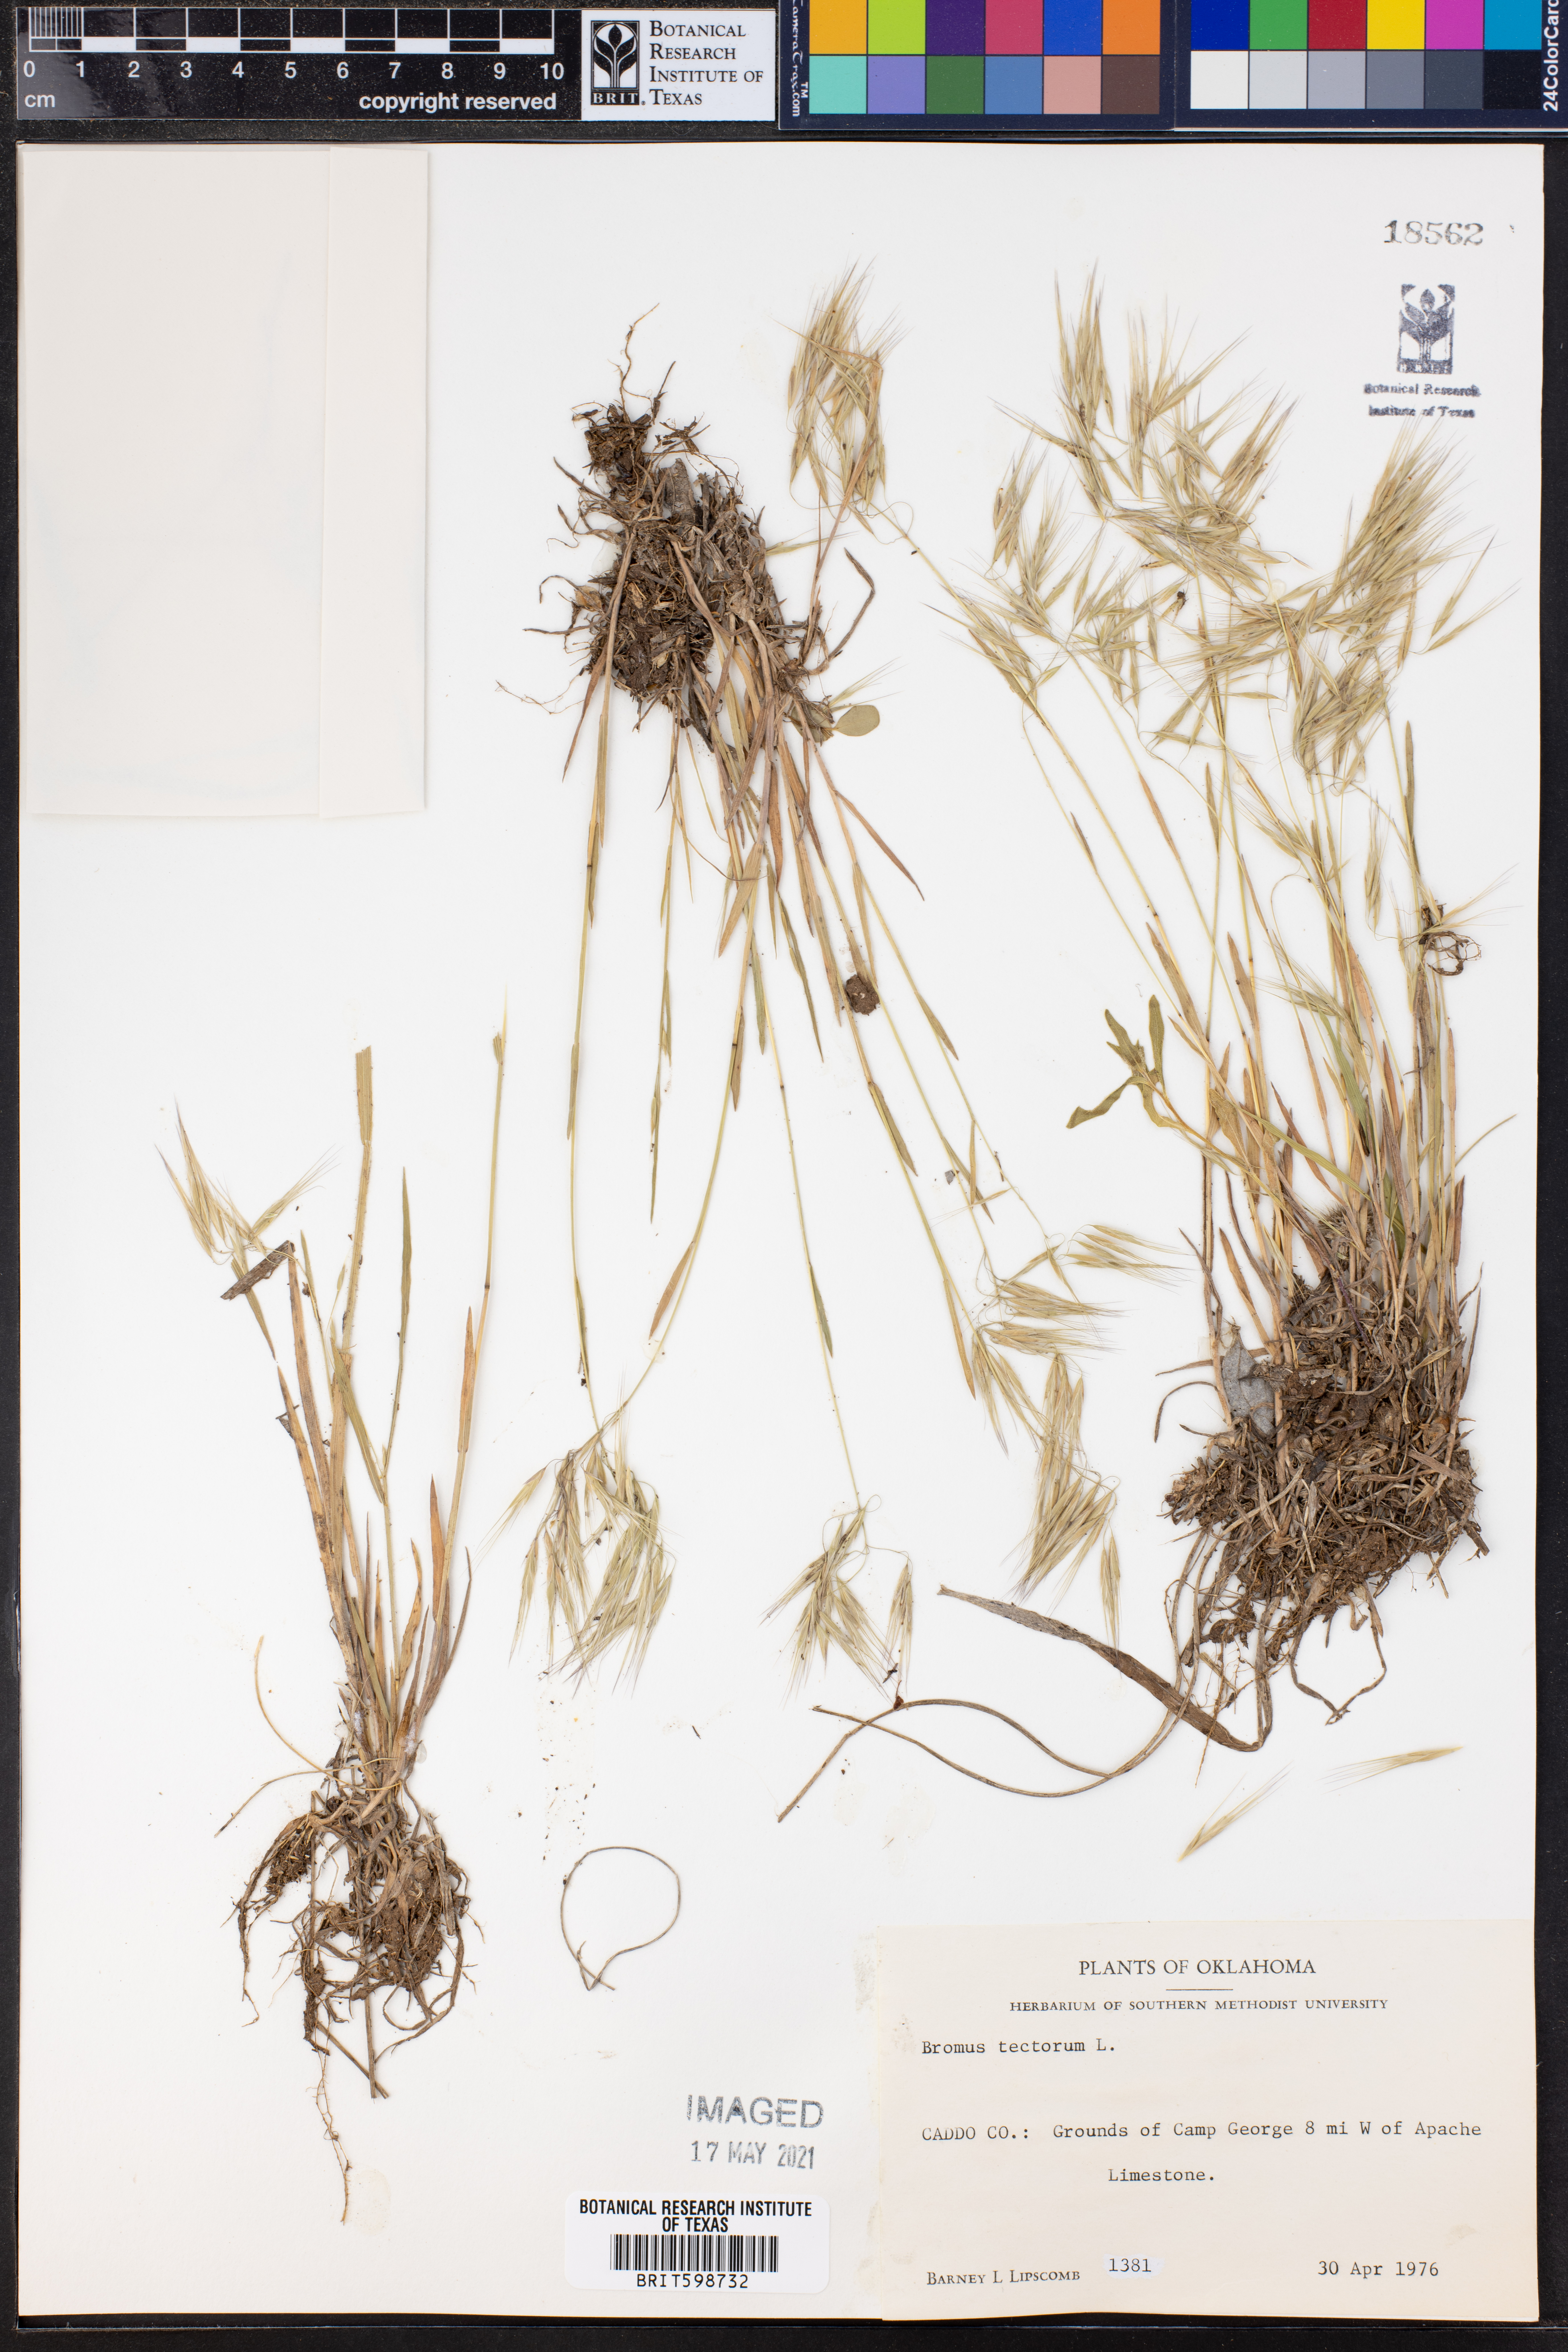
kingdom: Plantae
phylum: Tracheophyta
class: Liliopsida
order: Poales
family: Poaceae
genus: Bromus
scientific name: Bromus tectorum
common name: Cheatgrass
